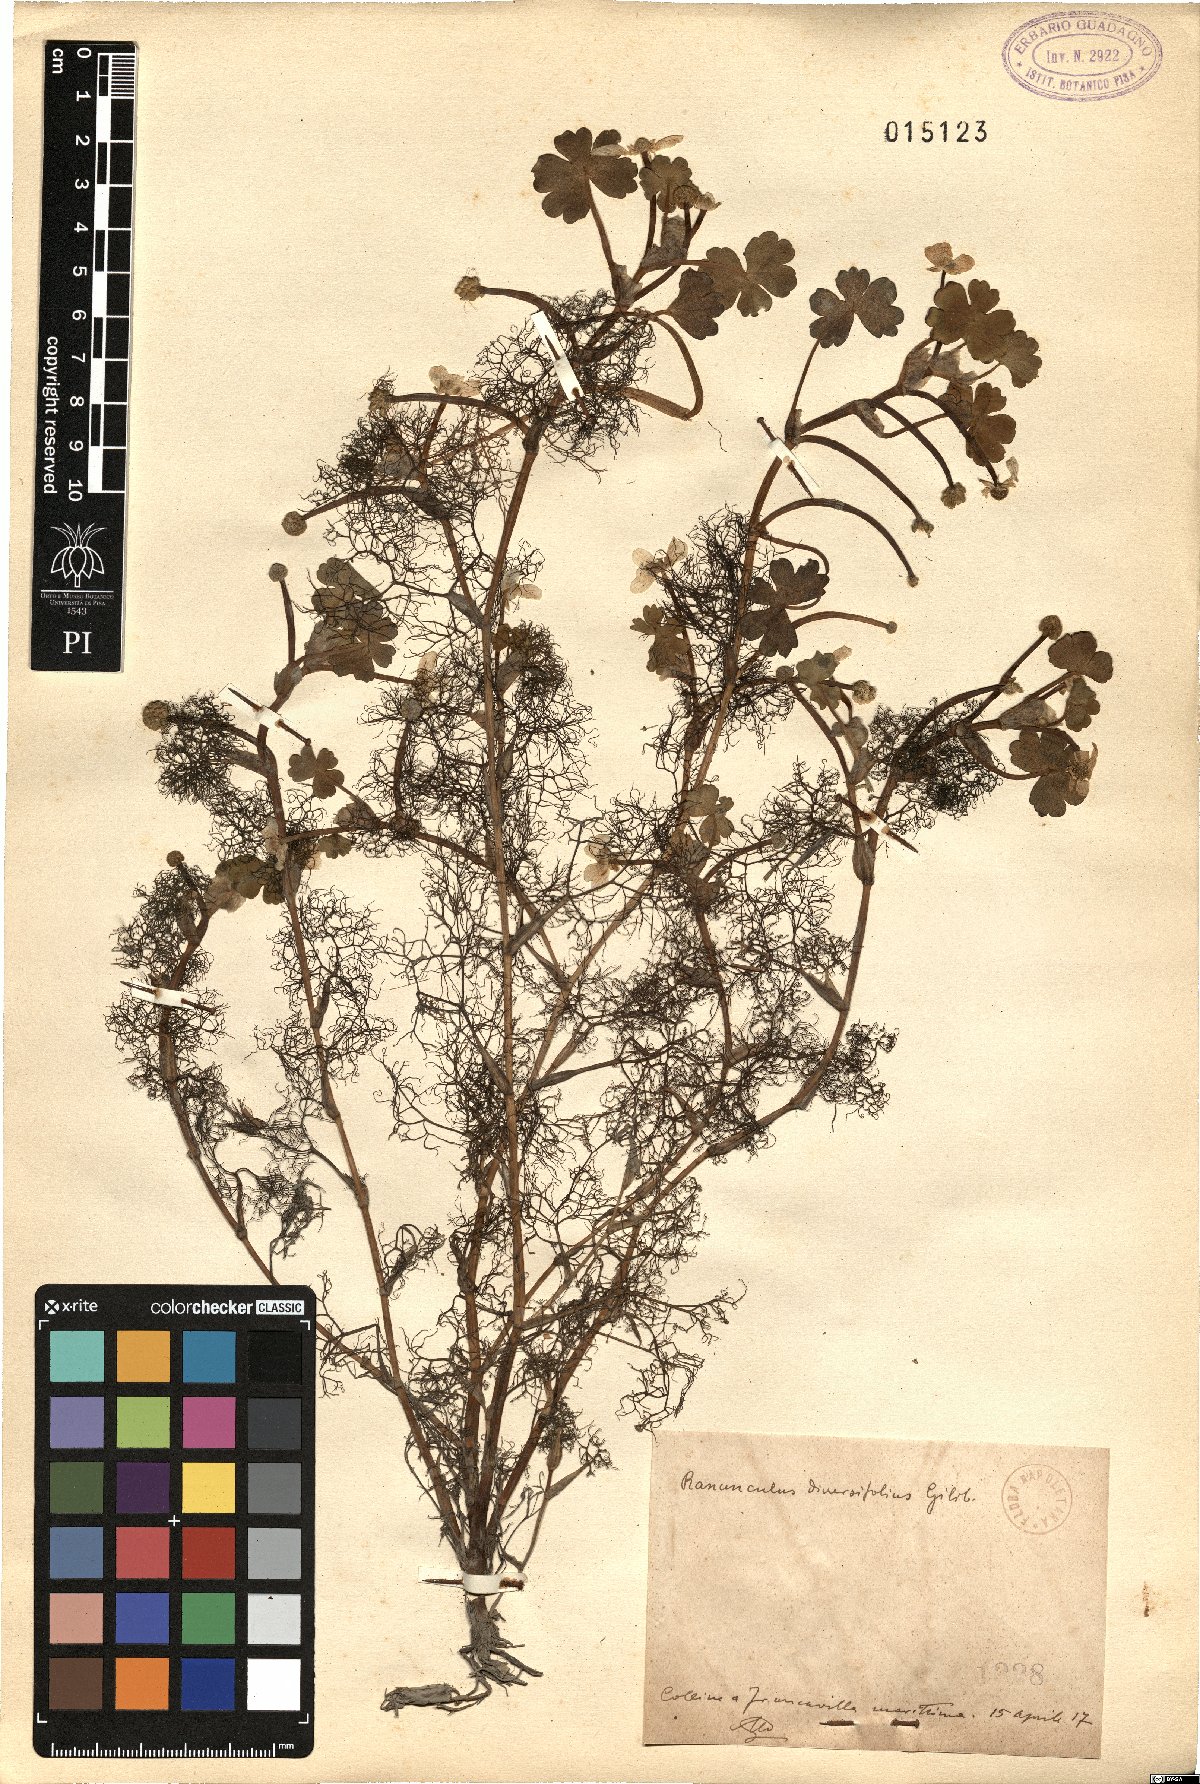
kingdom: Plantae
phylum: Tracheophyta
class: Magnoliopsida
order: Ranunculales
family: Ranunculaceae
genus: Ranunculus
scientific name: Ranunculus kurdicus
